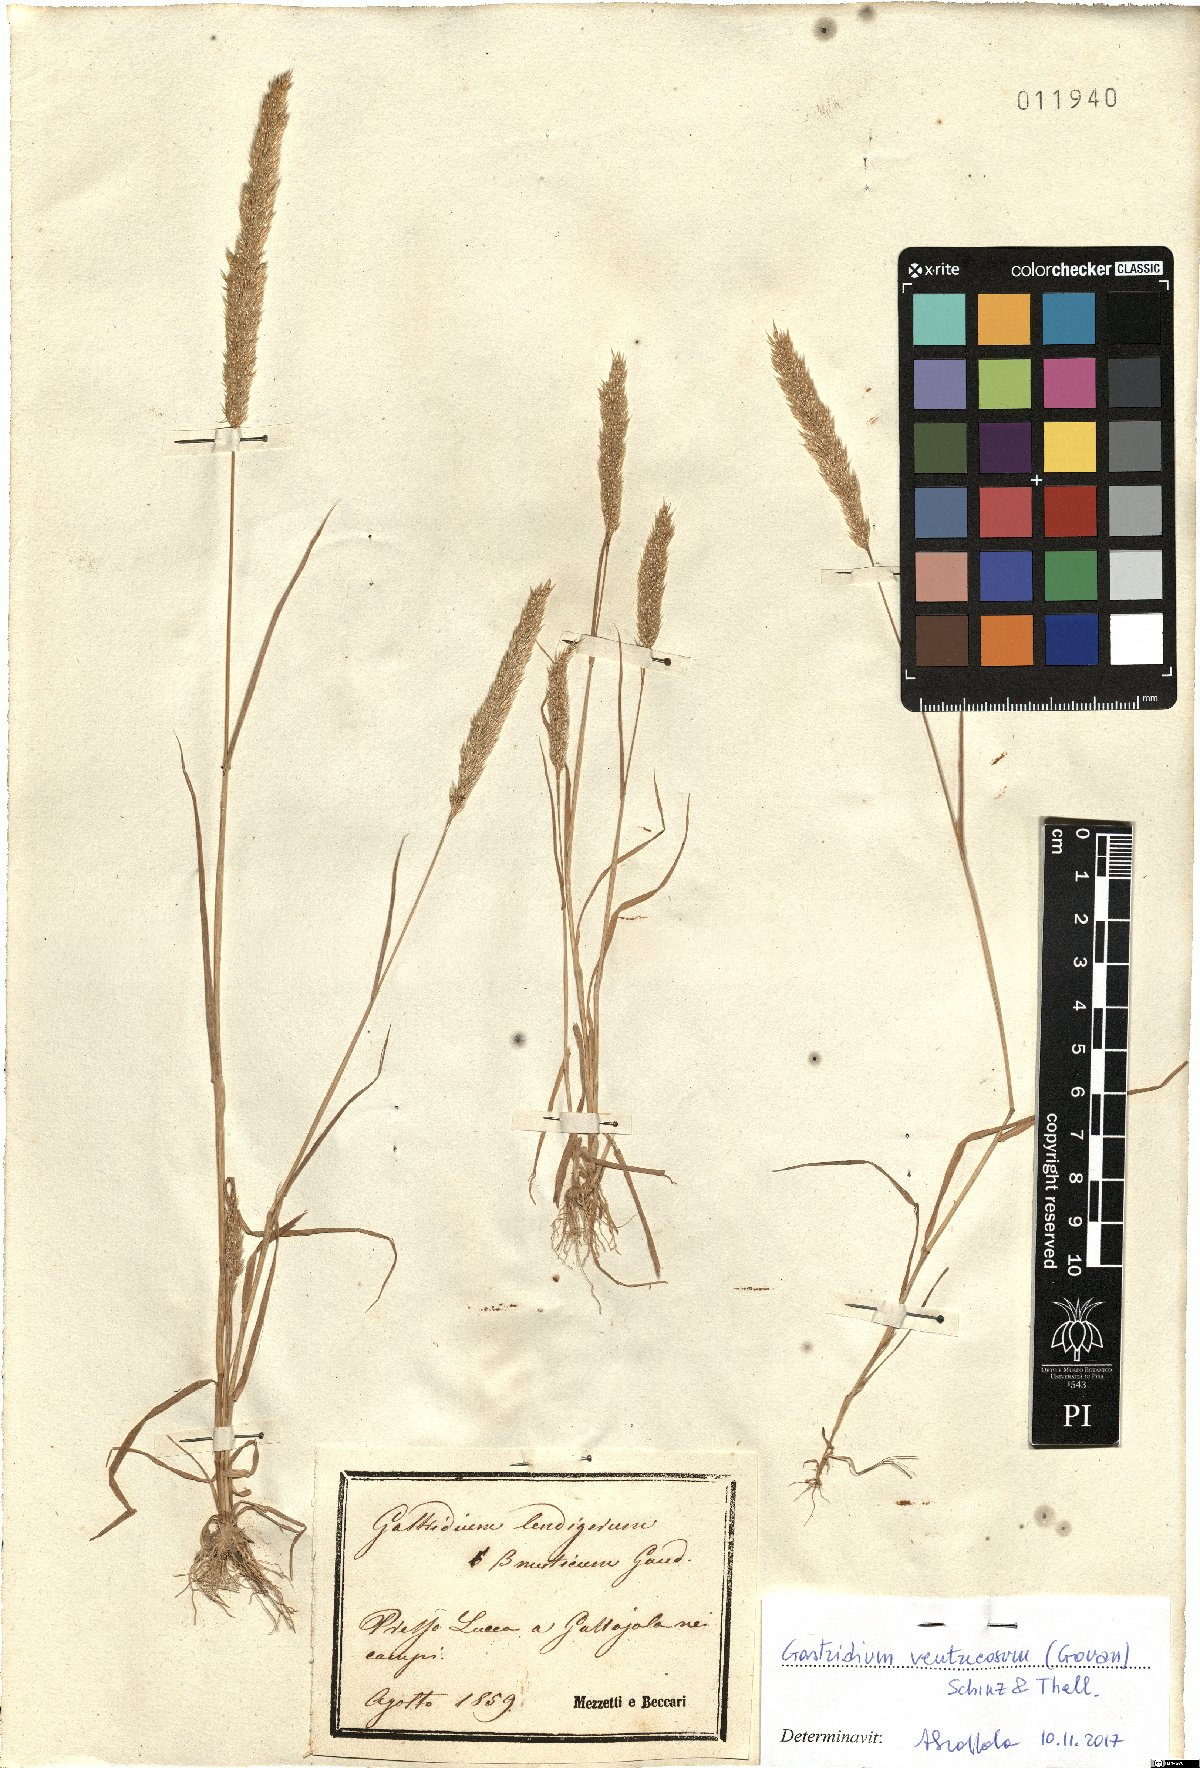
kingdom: Plantae
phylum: Tracheophyta
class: Liliopsida
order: Poales
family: Poaceae
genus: Gastridium
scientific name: Gastridium ventricosum
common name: Nit-grass
